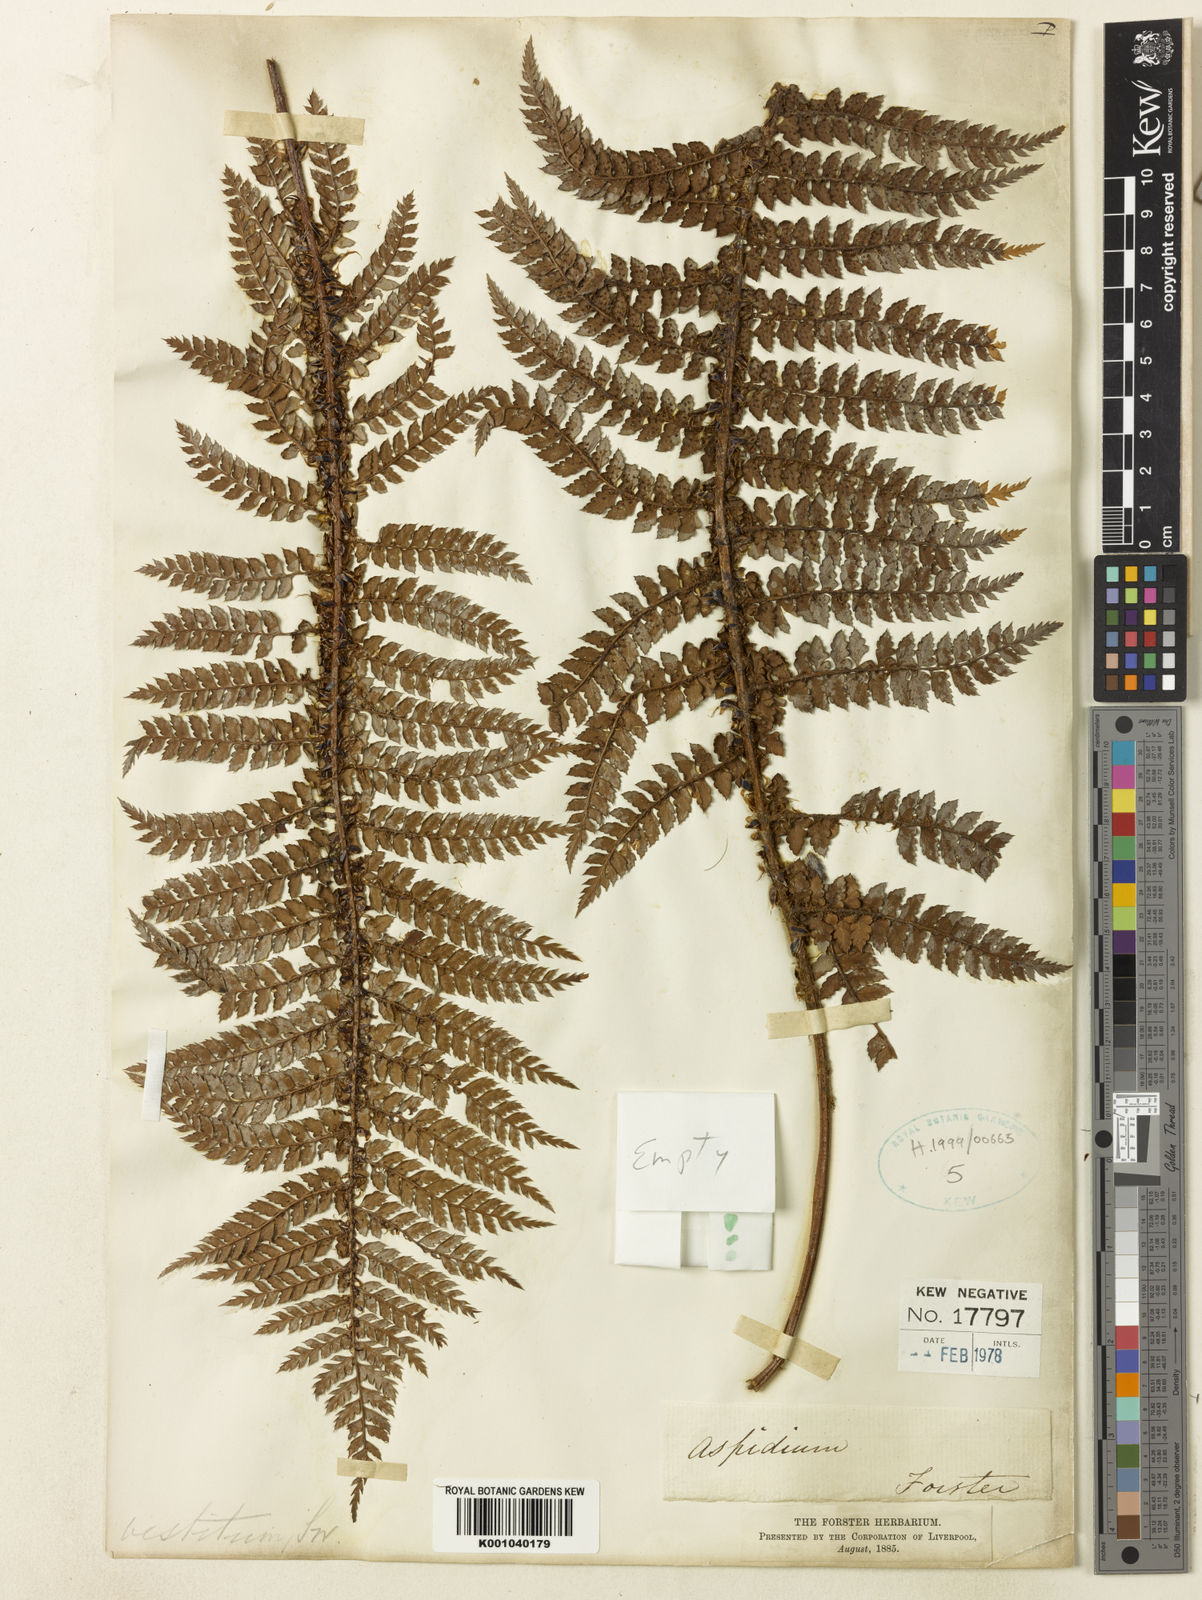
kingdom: Plantae
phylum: Tracheophyta
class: Polypodiopsida
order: Polypodiales
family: Dryopteridaceae
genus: Polystichum
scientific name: Polystichum vestitum
